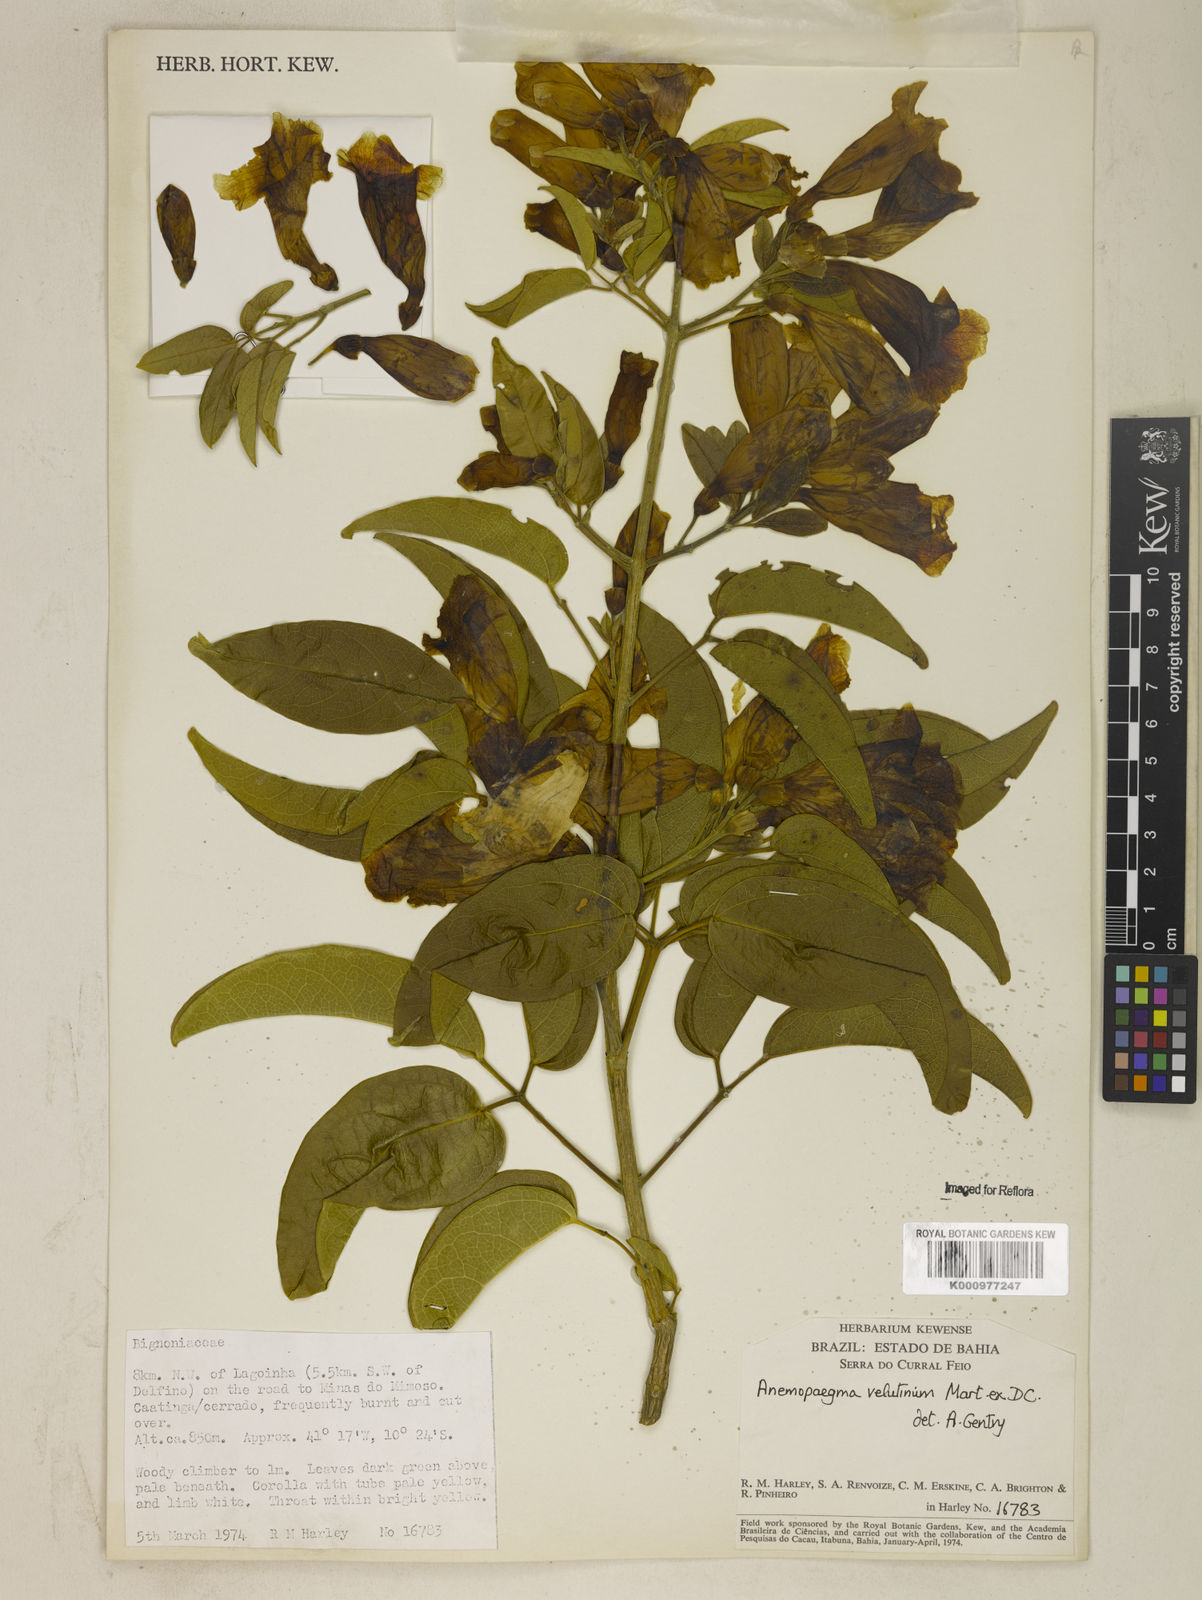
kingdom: Plantae
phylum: Tracheophyta
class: Magnoliopsida
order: Lamiales
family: Bignoniaceae
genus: Anemopaegma
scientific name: Anemopaegma velutinum
